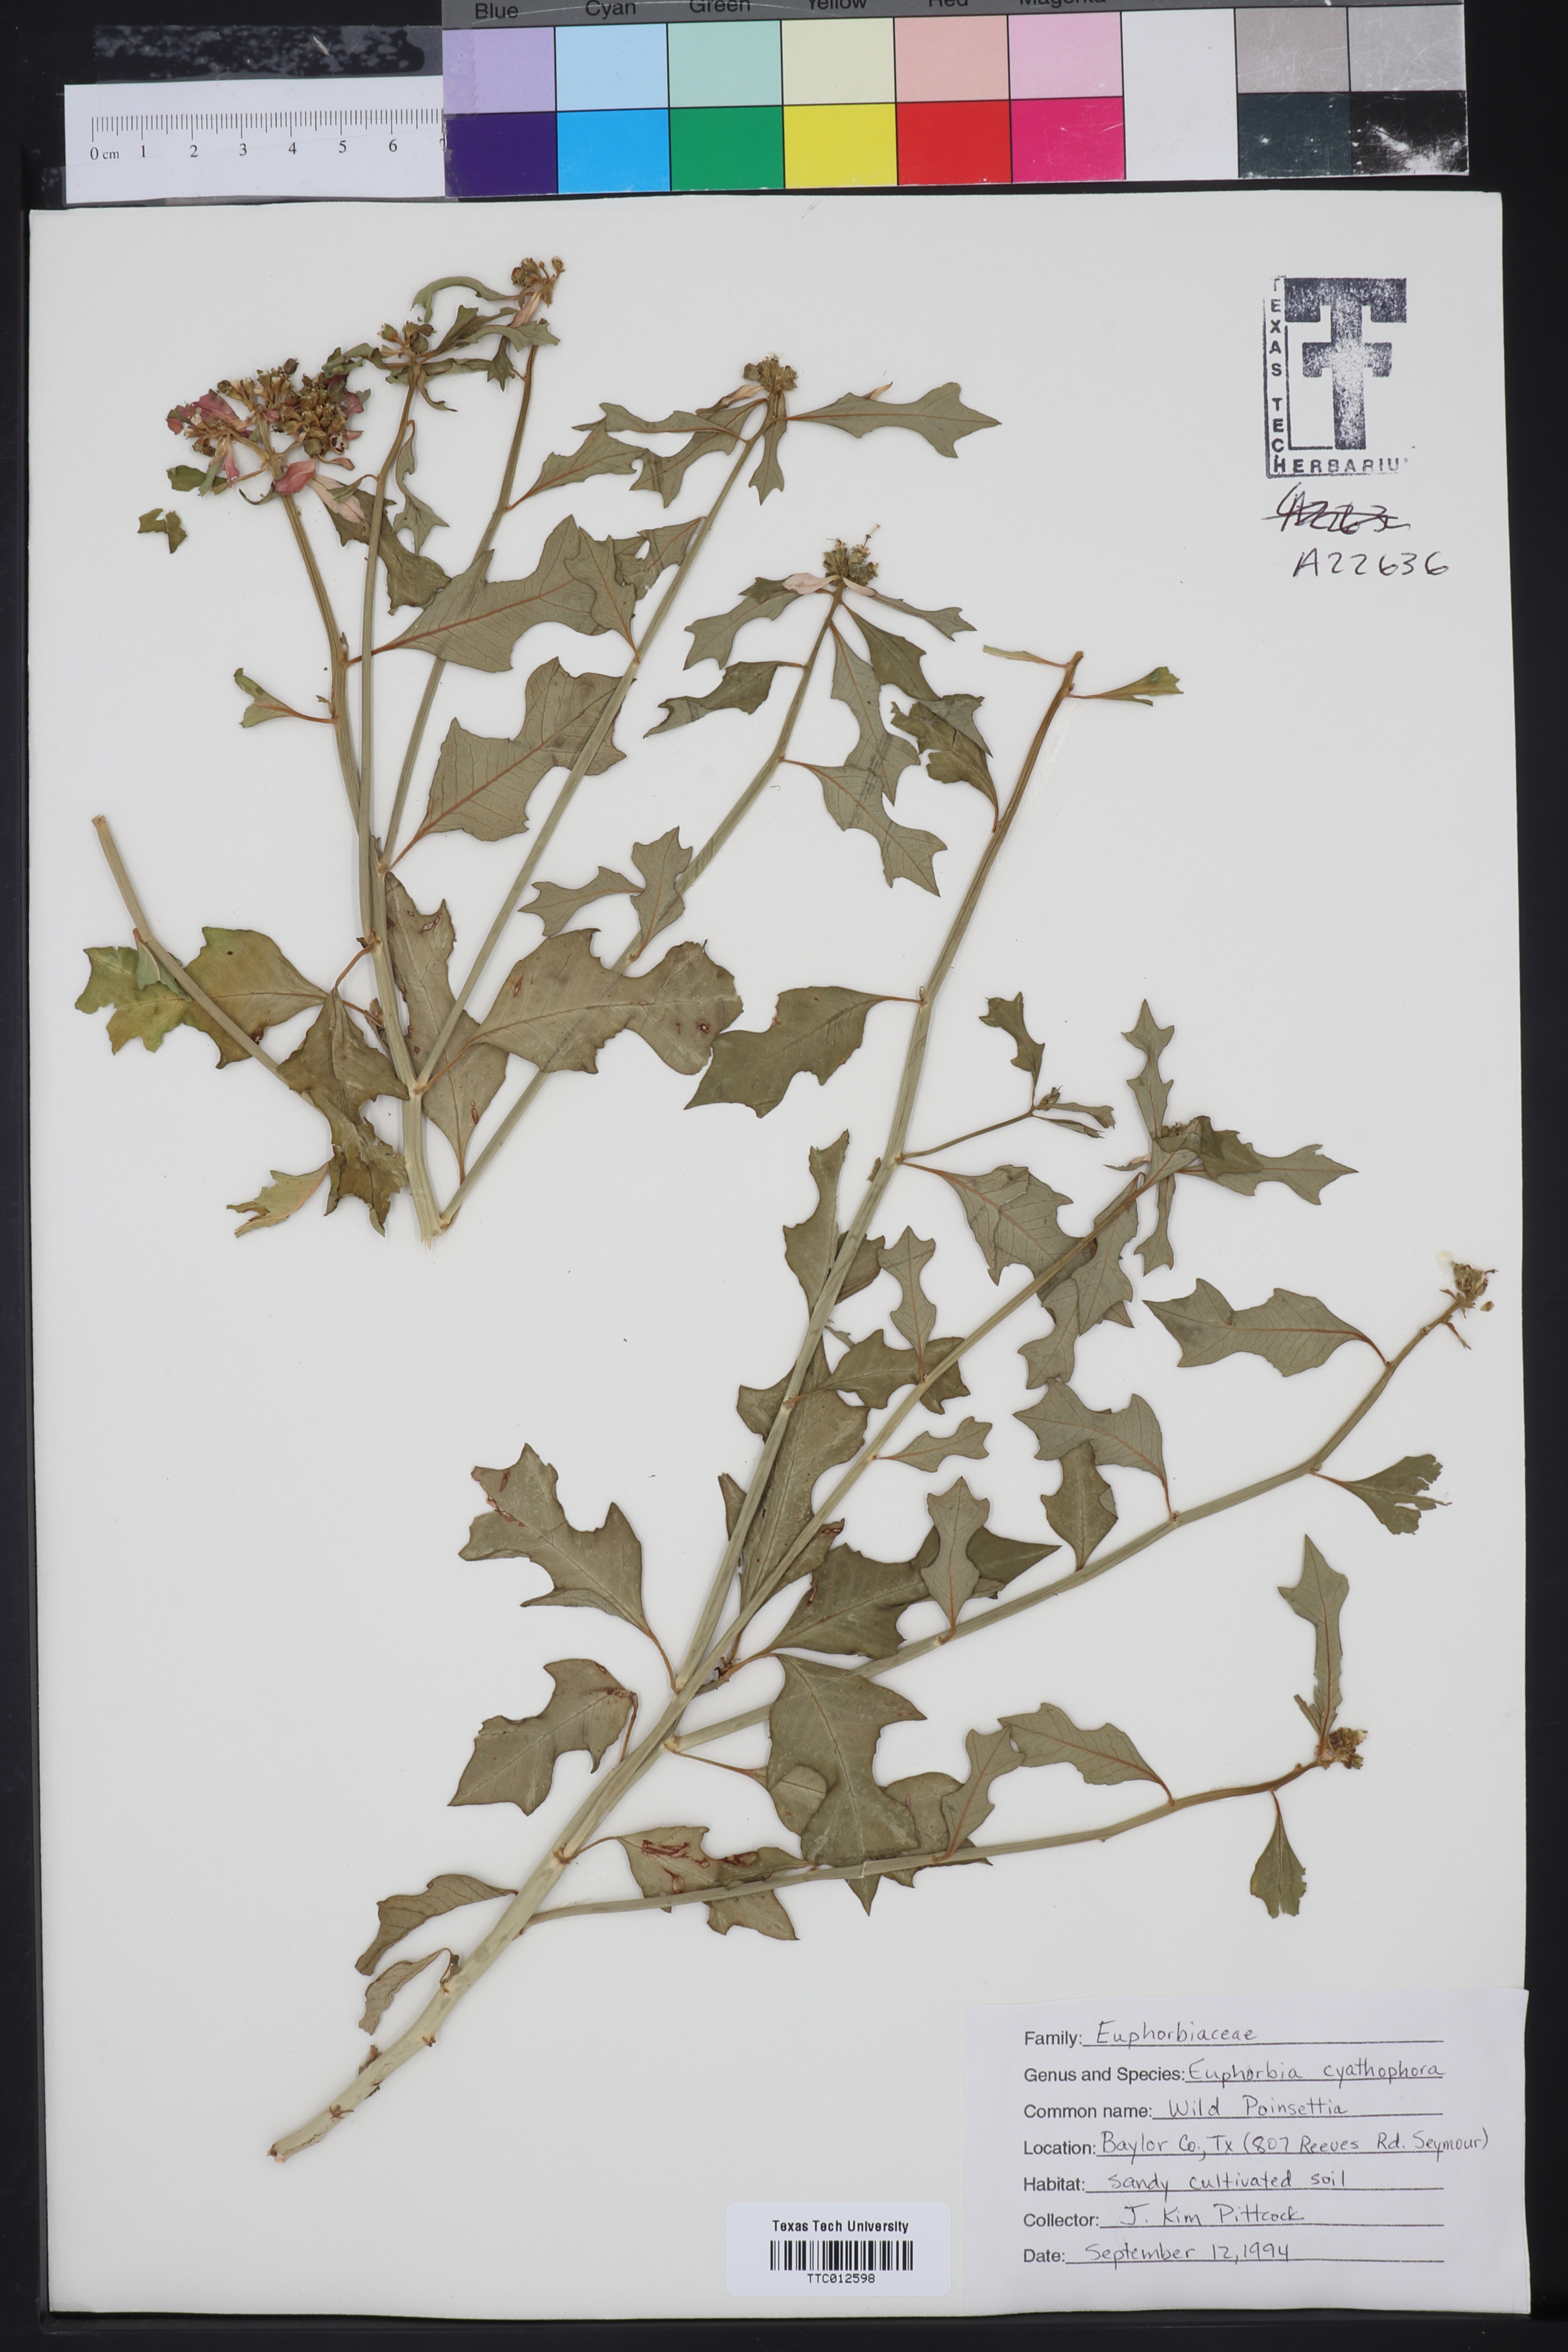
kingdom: Plantae
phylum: Tracheophyta
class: Magnoliopsida
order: Malpighiales
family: Euphorbiaceae
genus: Euphorbia
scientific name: Euphorbia heterophylla
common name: Mexican fireplant
